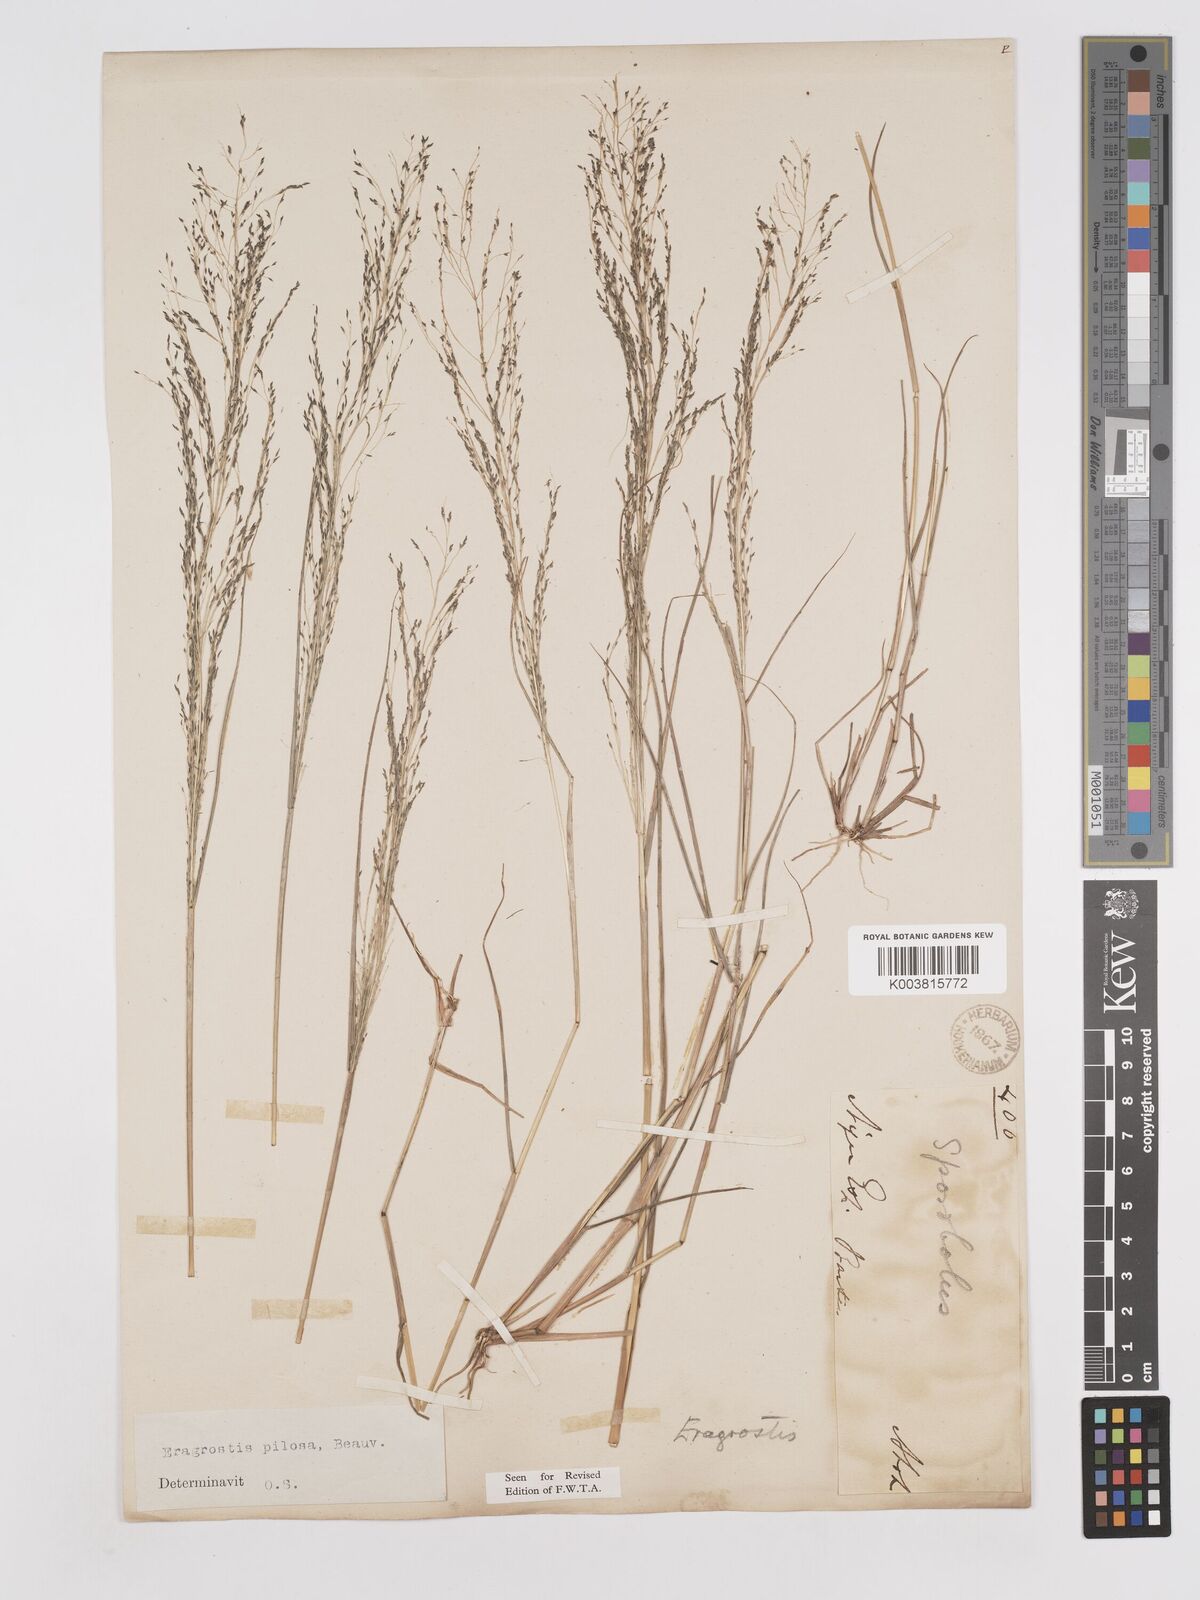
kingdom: Plantae
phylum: Tracheophyta
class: Liliopsida
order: Poales
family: Poaceae
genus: Eragrostis
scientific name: Eragrostis pilosa
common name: Indian lovegrass
